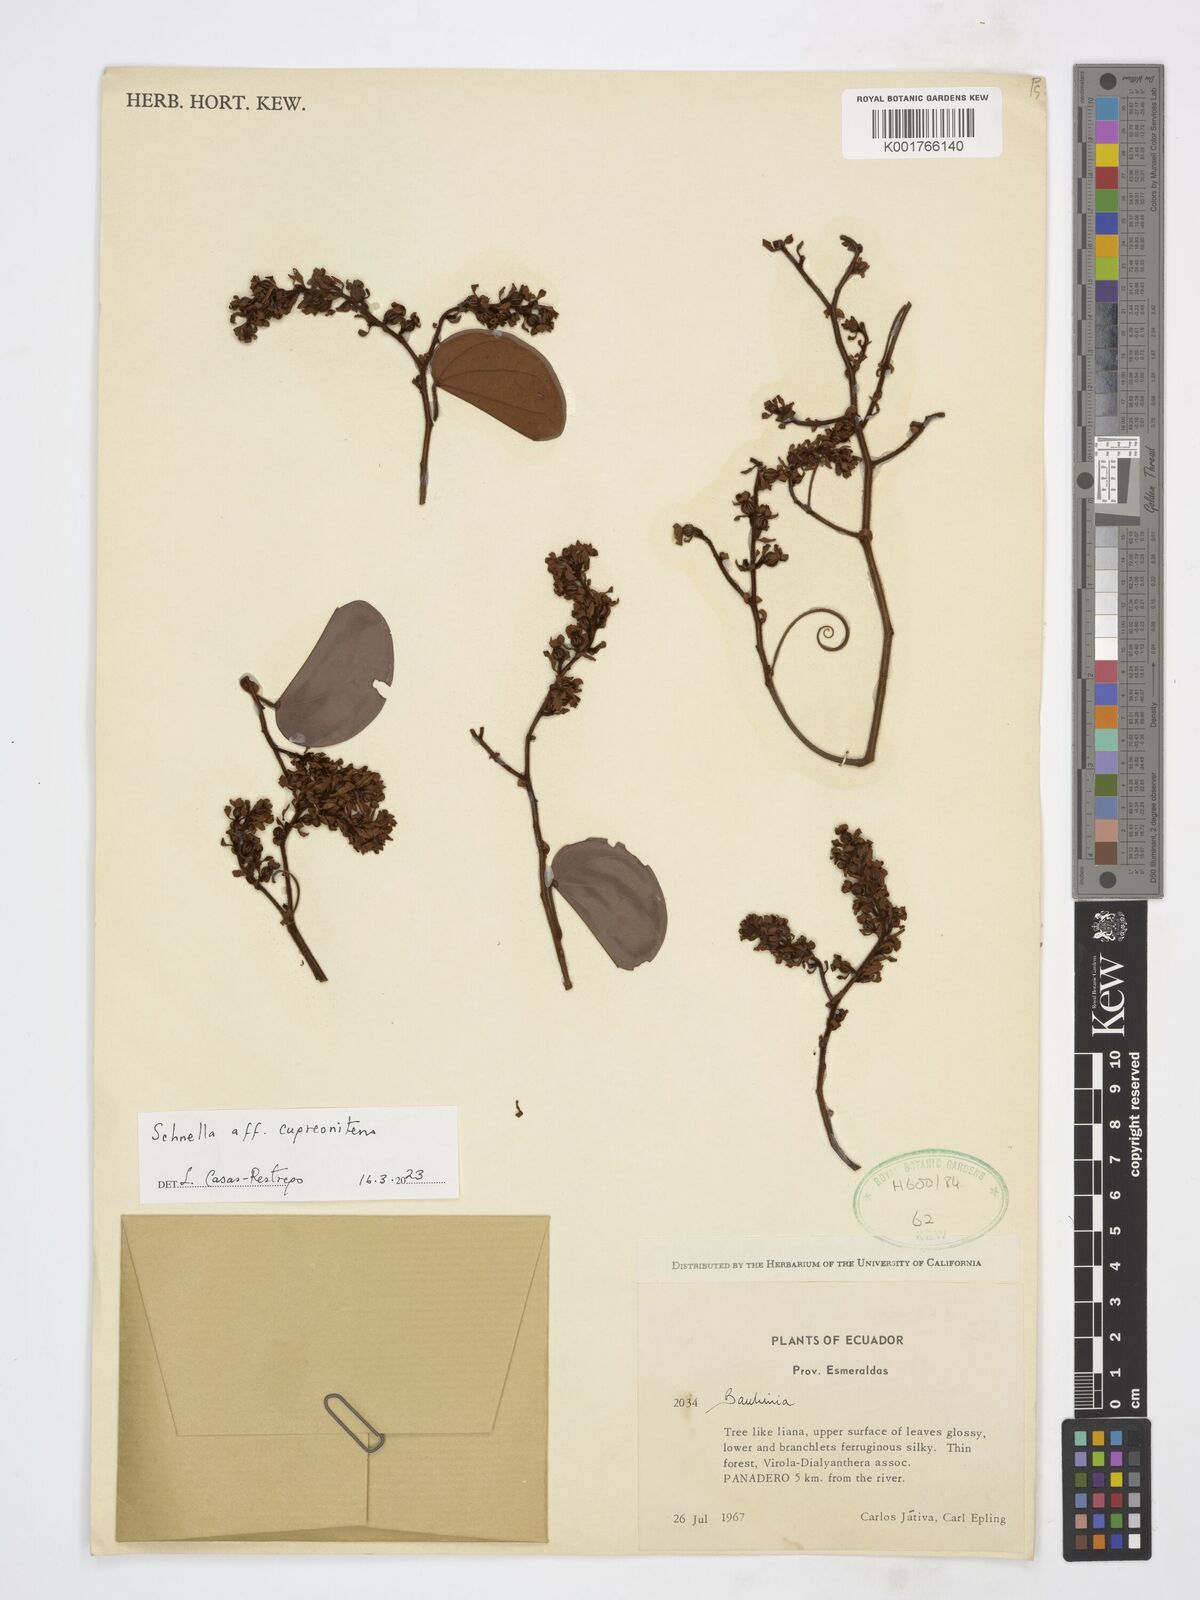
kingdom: Plantae
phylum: Tracheophyta
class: Magnoliopsida
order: Fabales
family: Fabaceae
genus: Schnella
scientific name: Schnella cupreonitens
